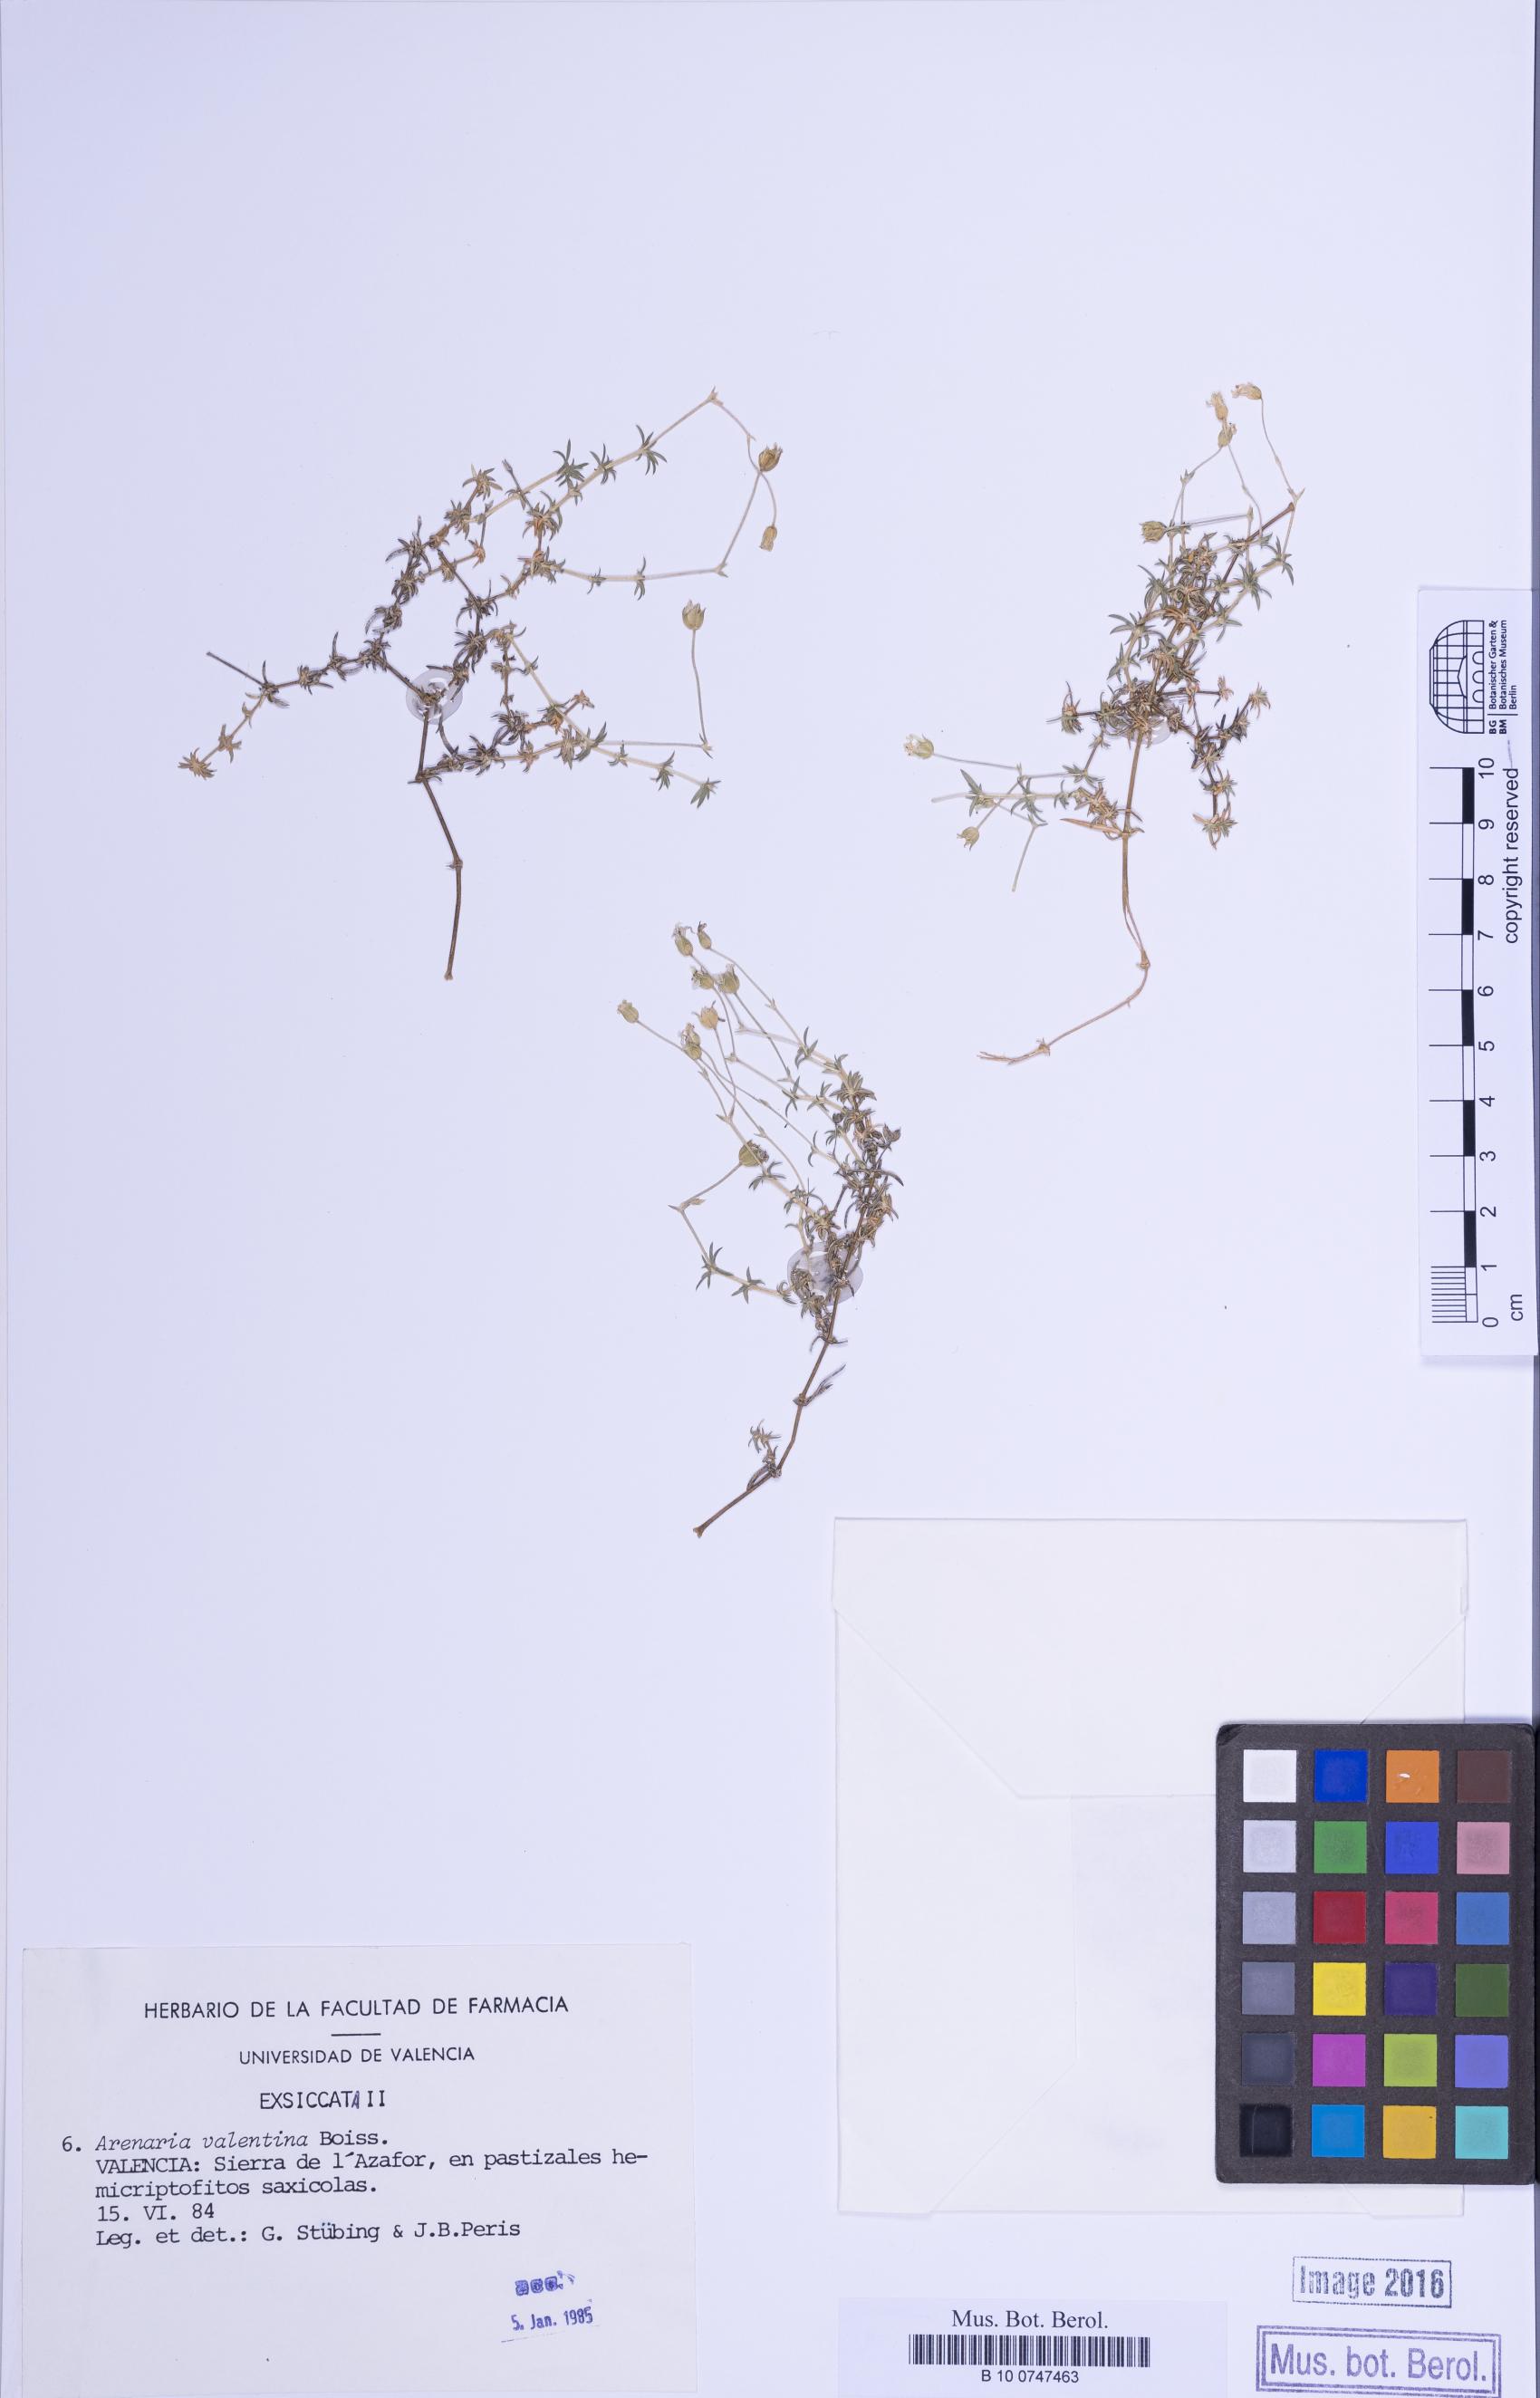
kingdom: Plantae
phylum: Tracheophyta
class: Magnoliopsida
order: Caryophyllales
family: Caryophyllaceae
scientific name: Caryophyllaceae
